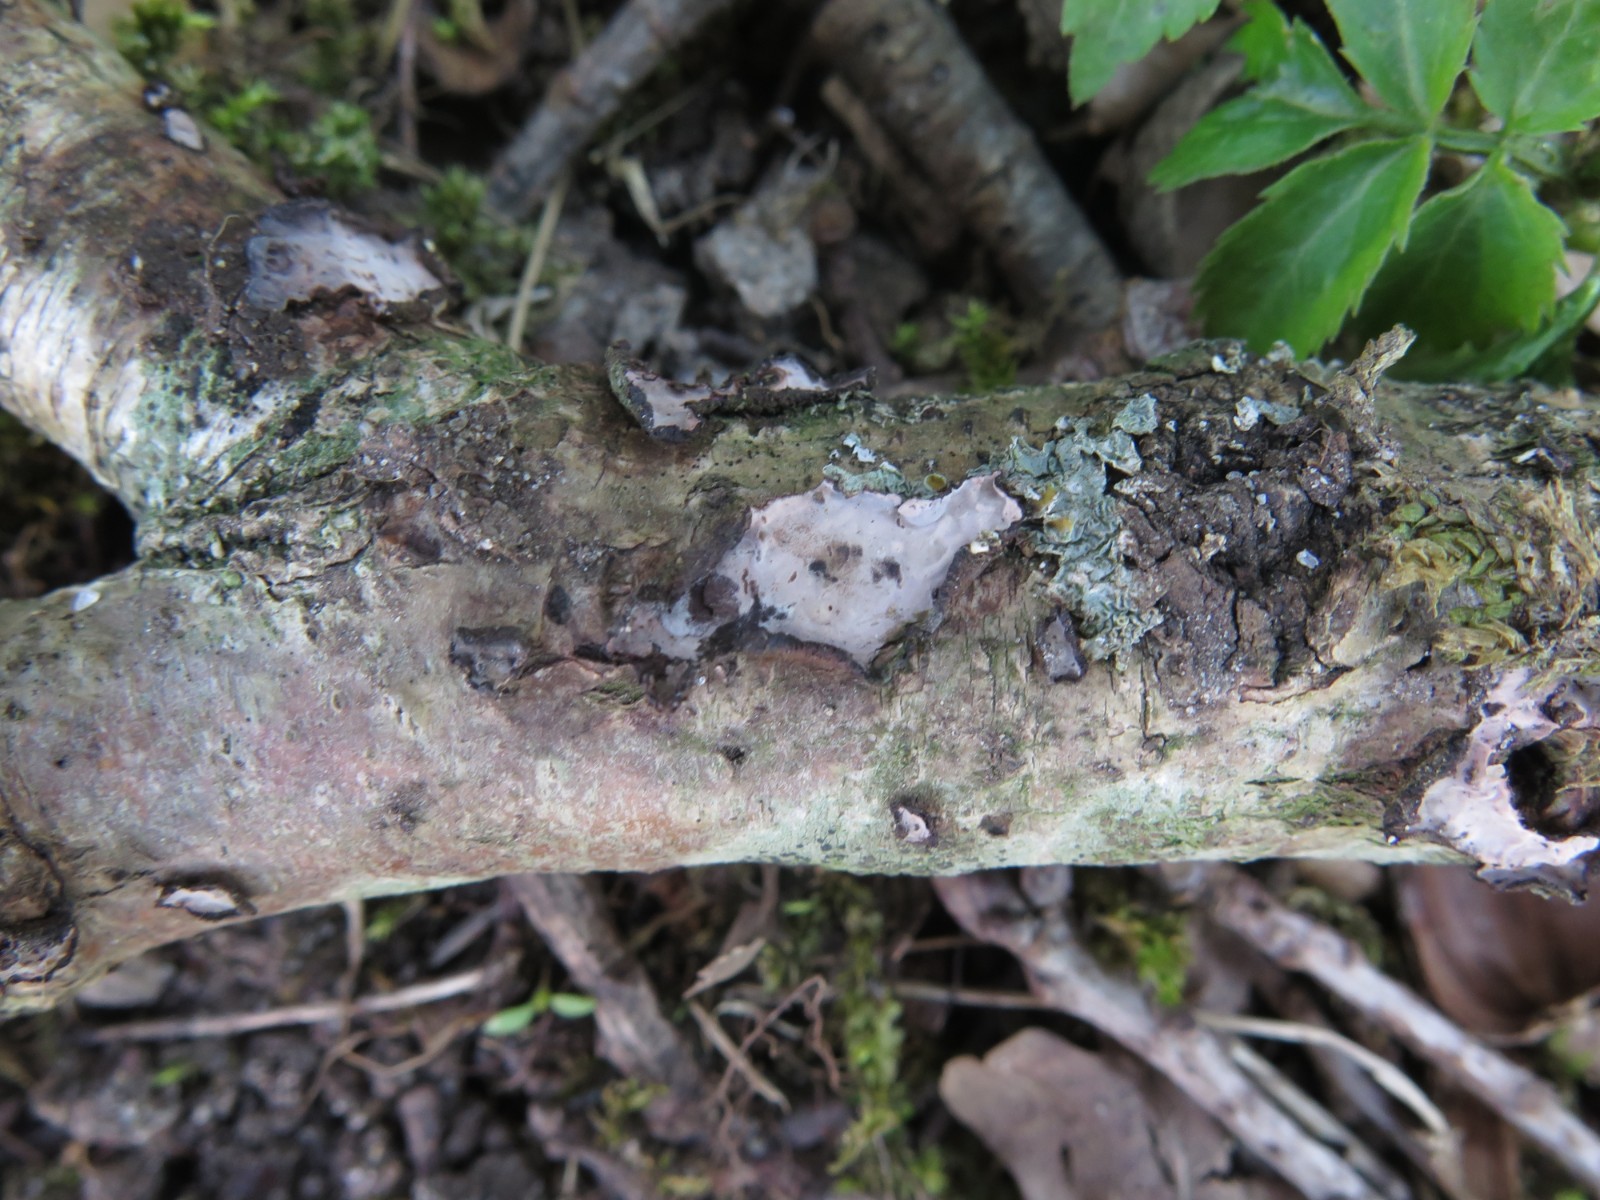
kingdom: Fungi
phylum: Basidiomycota
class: Agaricomycetes
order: Russulales
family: Peniophoraceae
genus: Peniophora
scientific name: Peniophora quercina
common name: ege-voksskind
